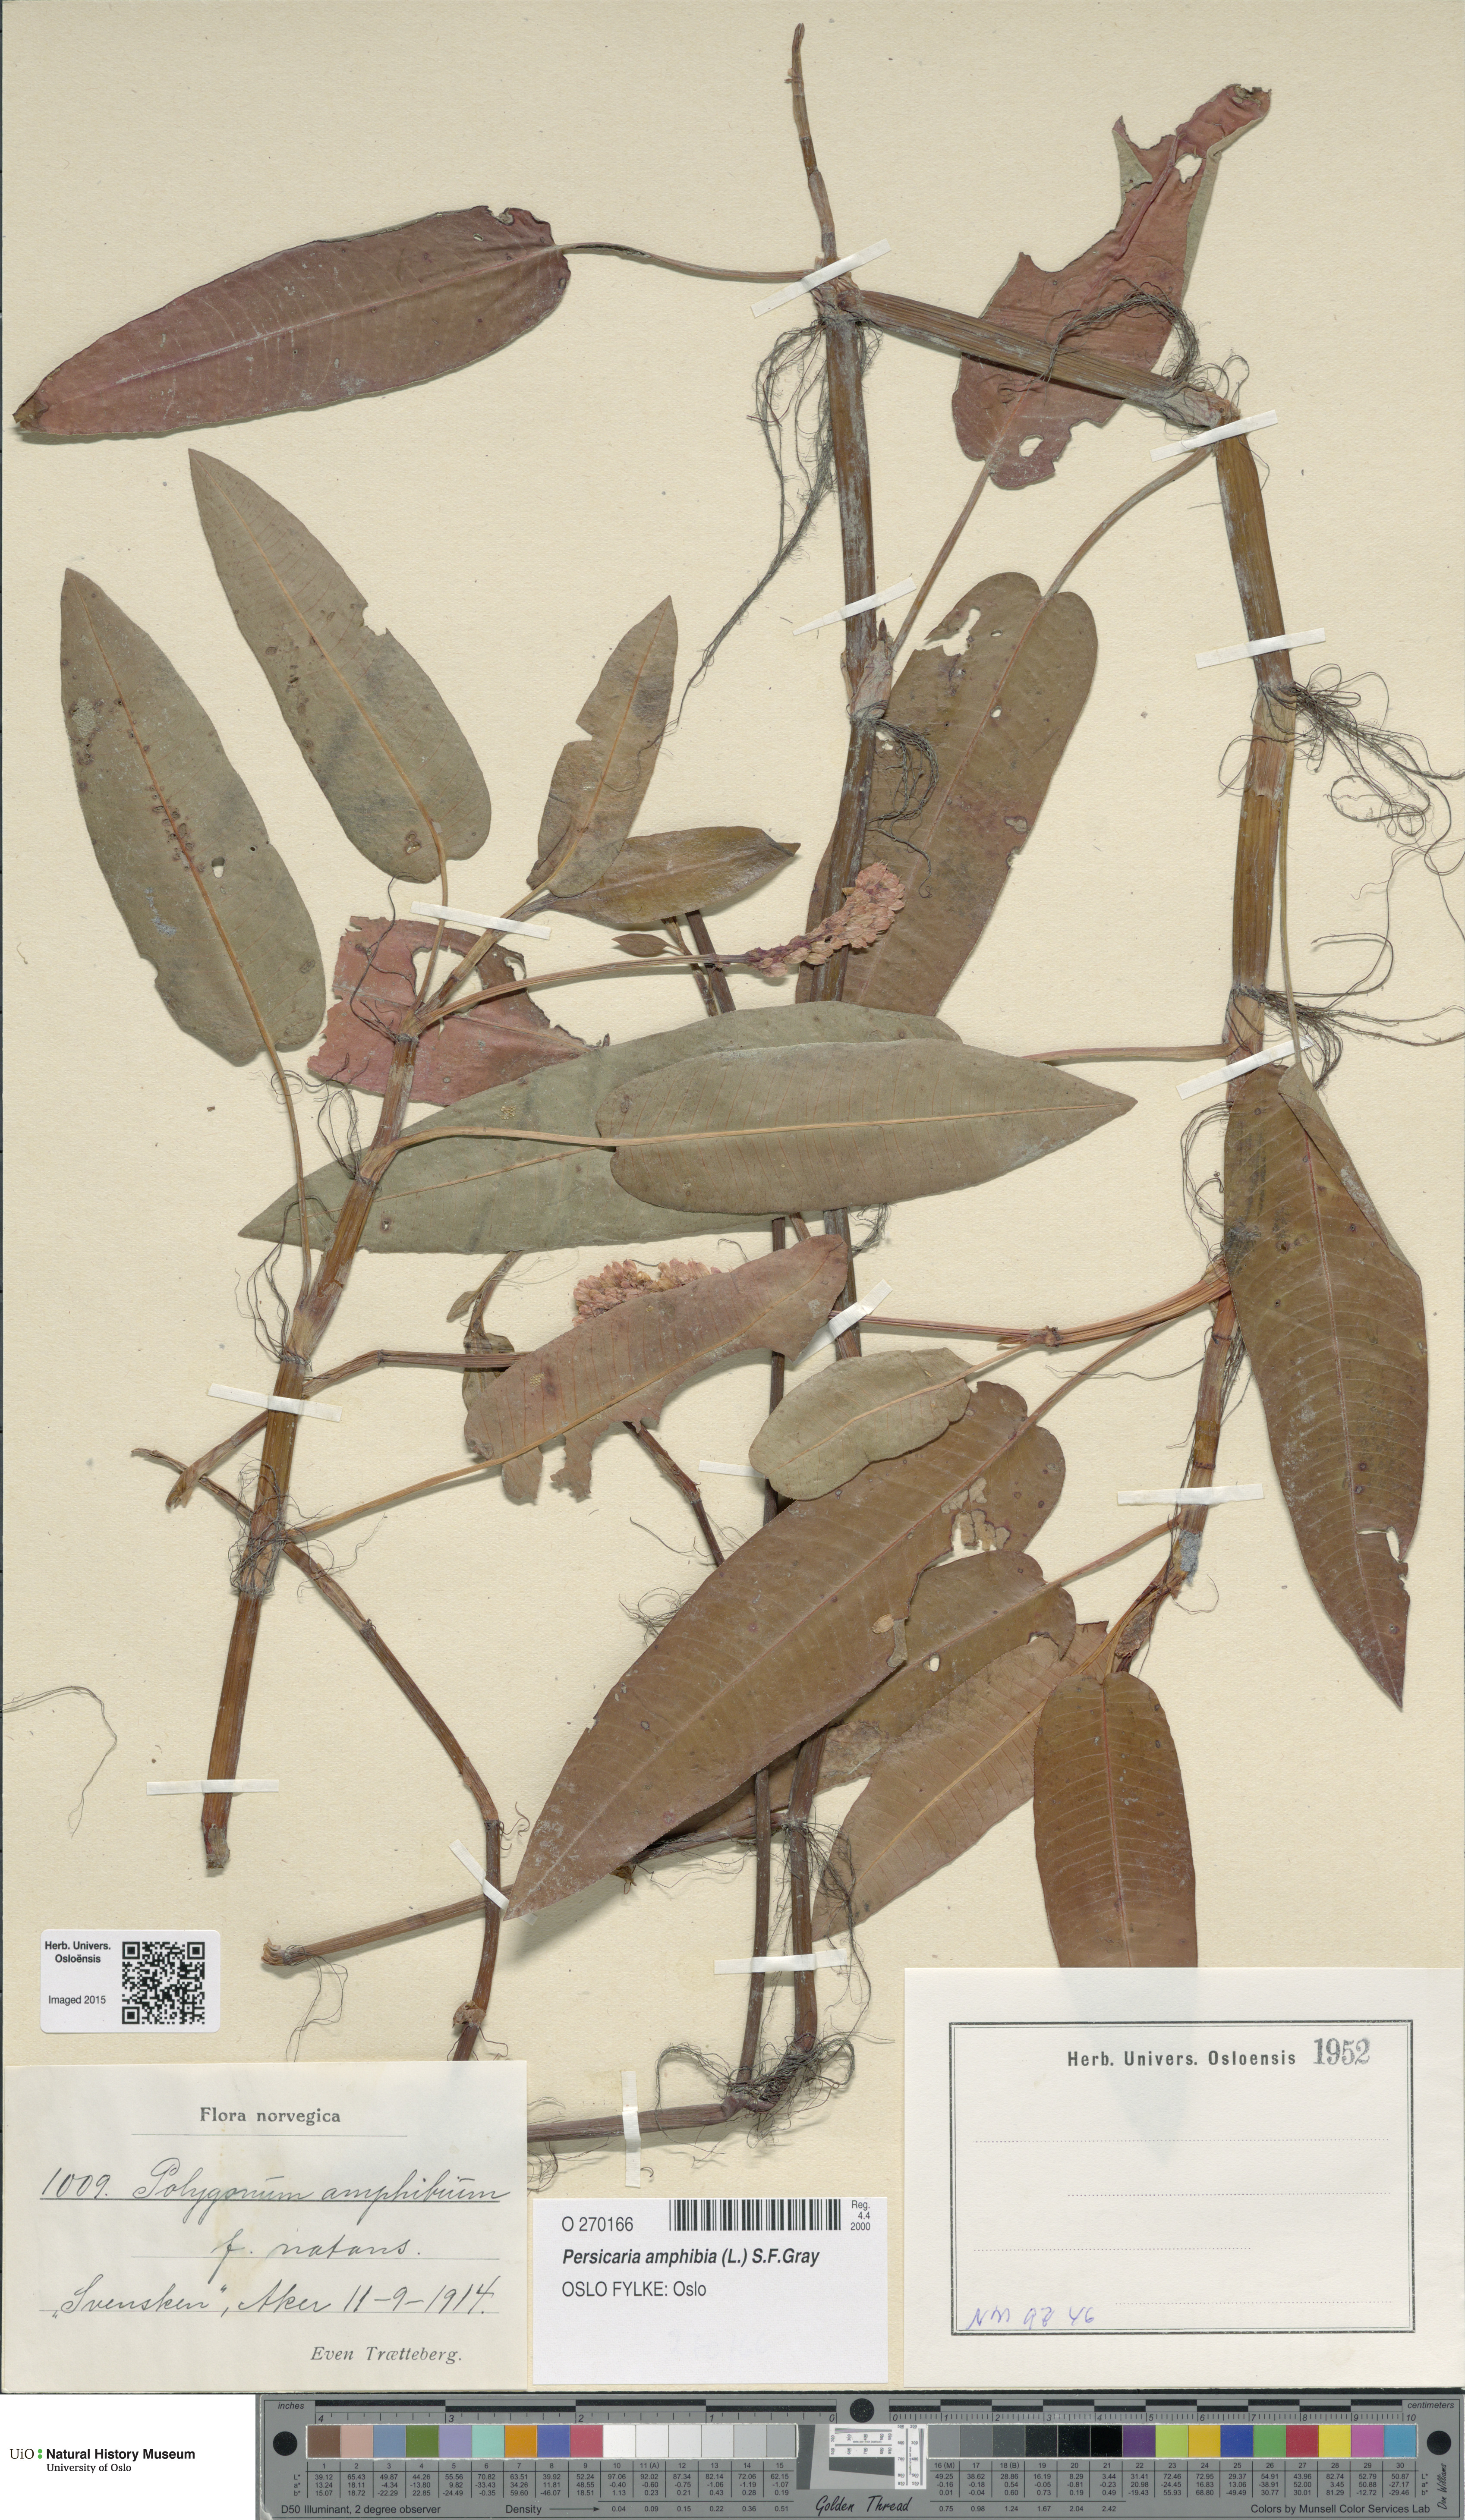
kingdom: Plantae
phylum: Tracheophyta
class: Magnoliopsida
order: Caryophyllales
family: Polygonaceae
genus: Persicaria
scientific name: Persicaria amphibia
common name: Amphibious bistort
